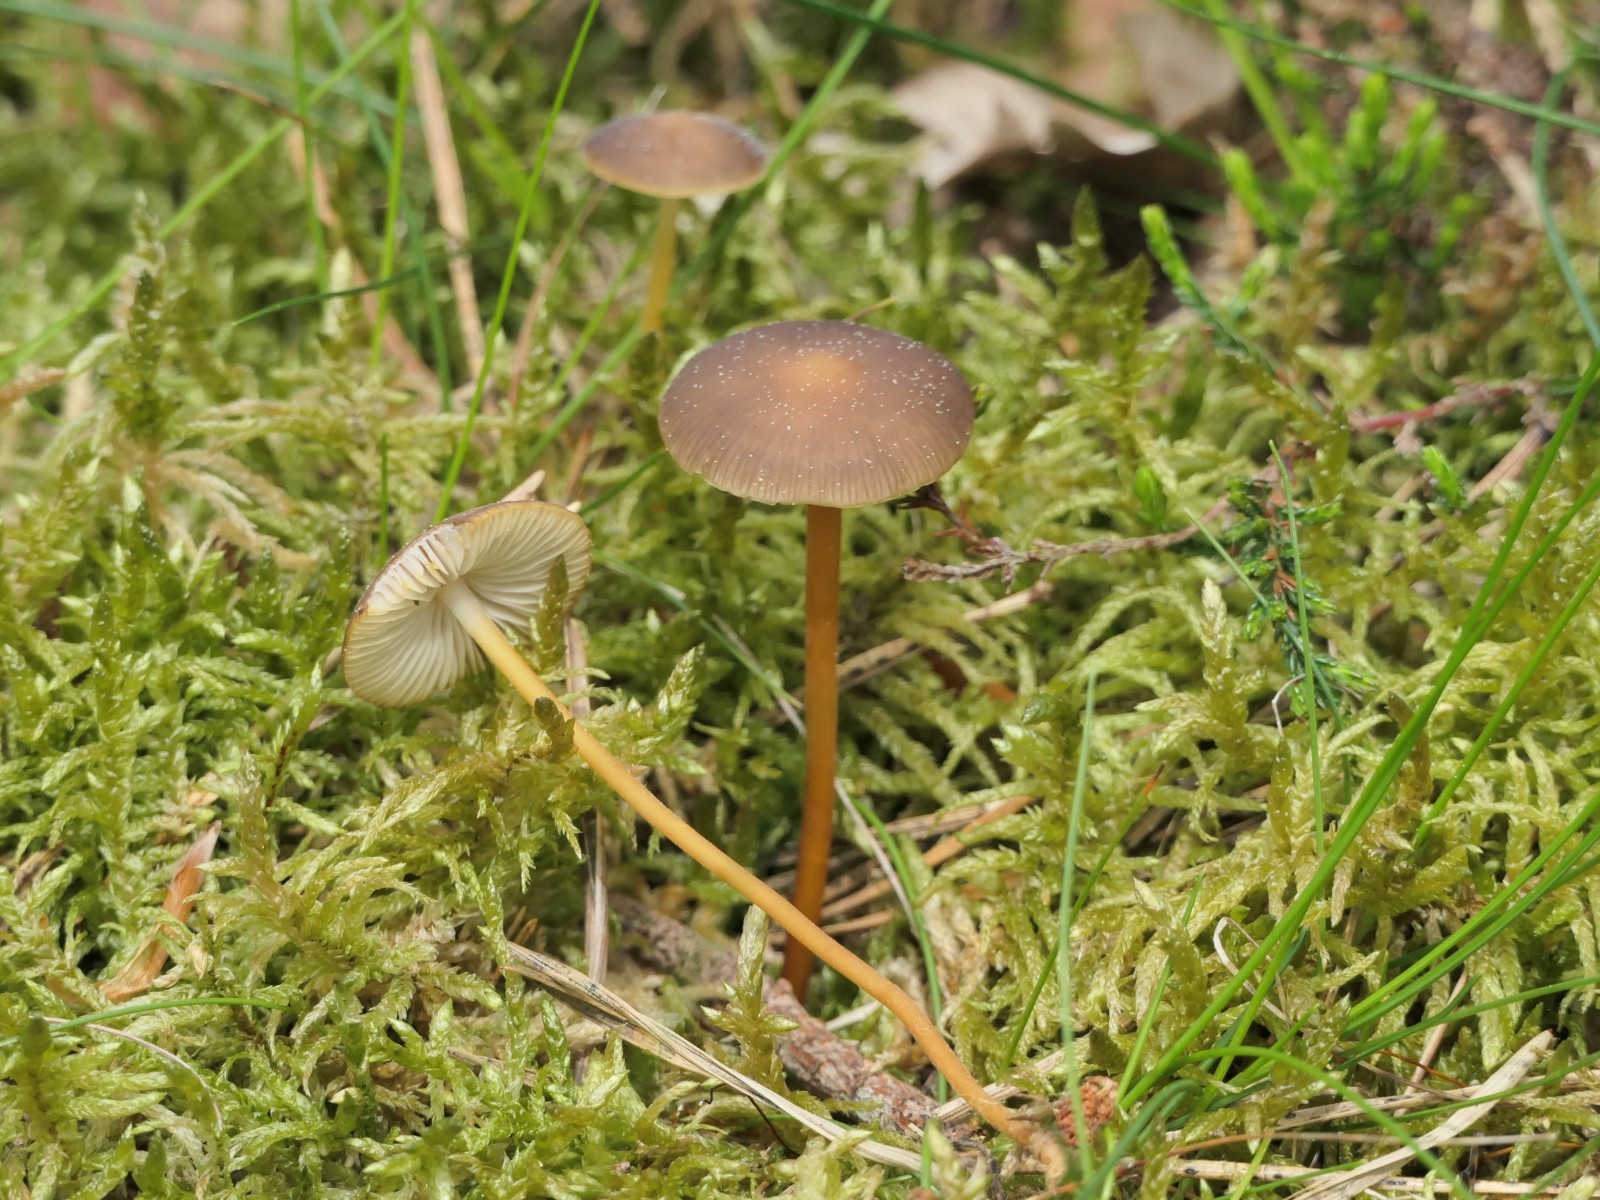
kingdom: Fungi
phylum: Basidiomycota
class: Agaricomycetes
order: Agaricales
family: Physalacriaceae
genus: Strobilurus
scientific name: Strobilurus
